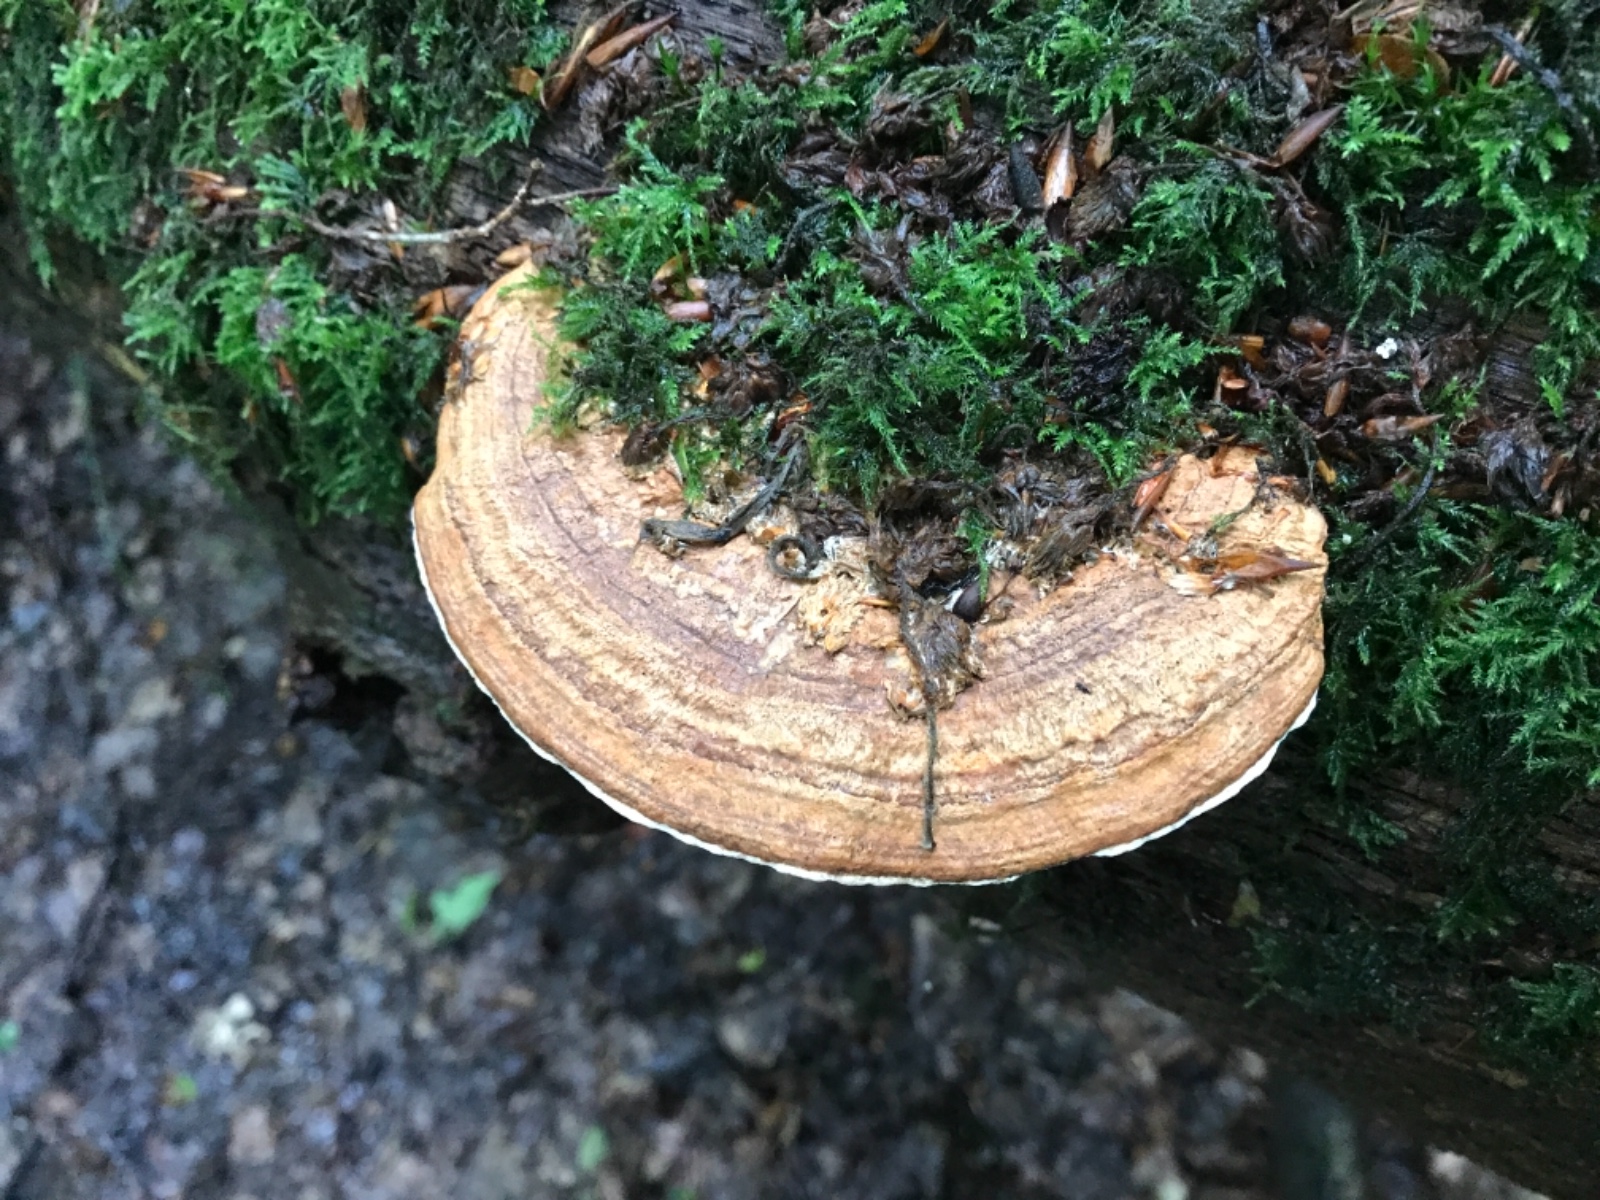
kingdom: Fungi
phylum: Basidiomycota
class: Agaricomycetes
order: Polyporales
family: Fomitopsidaceae
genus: Daedalea
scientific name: Daedalea quercina
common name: ege-labyrintsvamp
